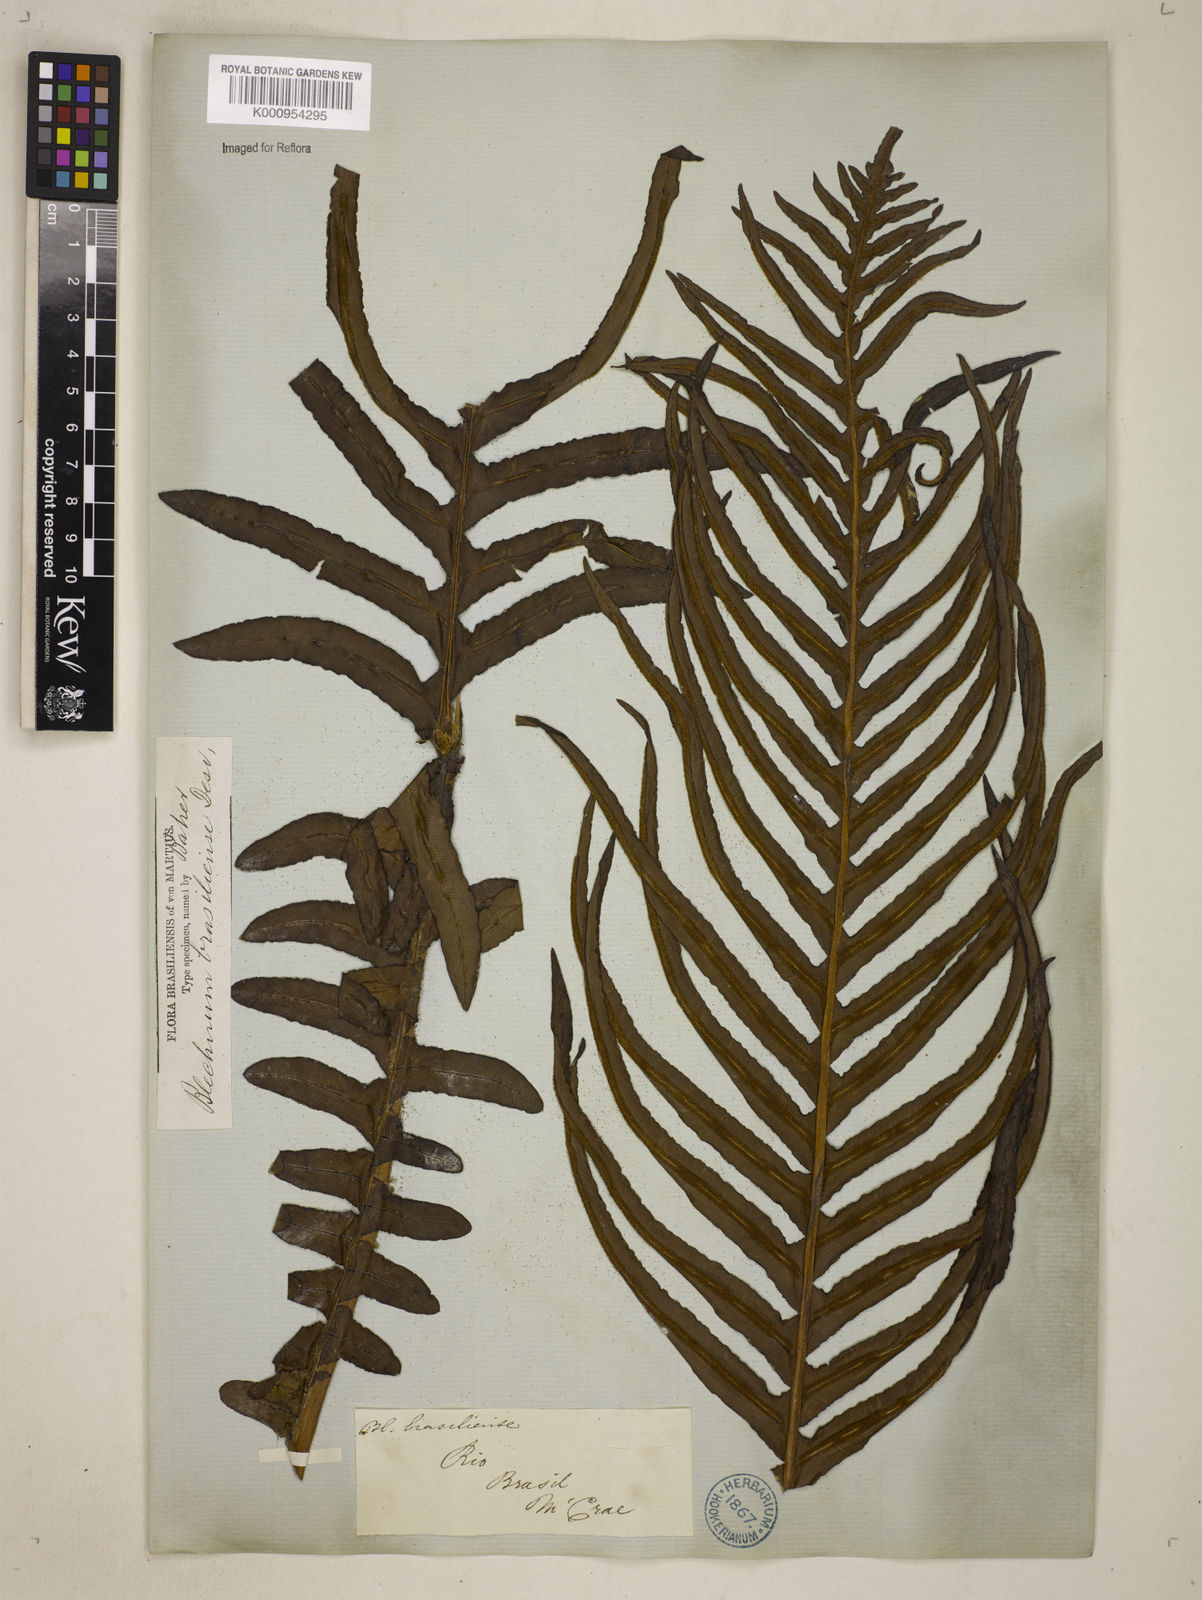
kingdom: Plantae
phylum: Tracheophyta
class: Polypodiopsida
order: Polypodiales
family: Blechnaceae
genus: Neoblechnum
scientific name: Neoblechnum brasiliense
